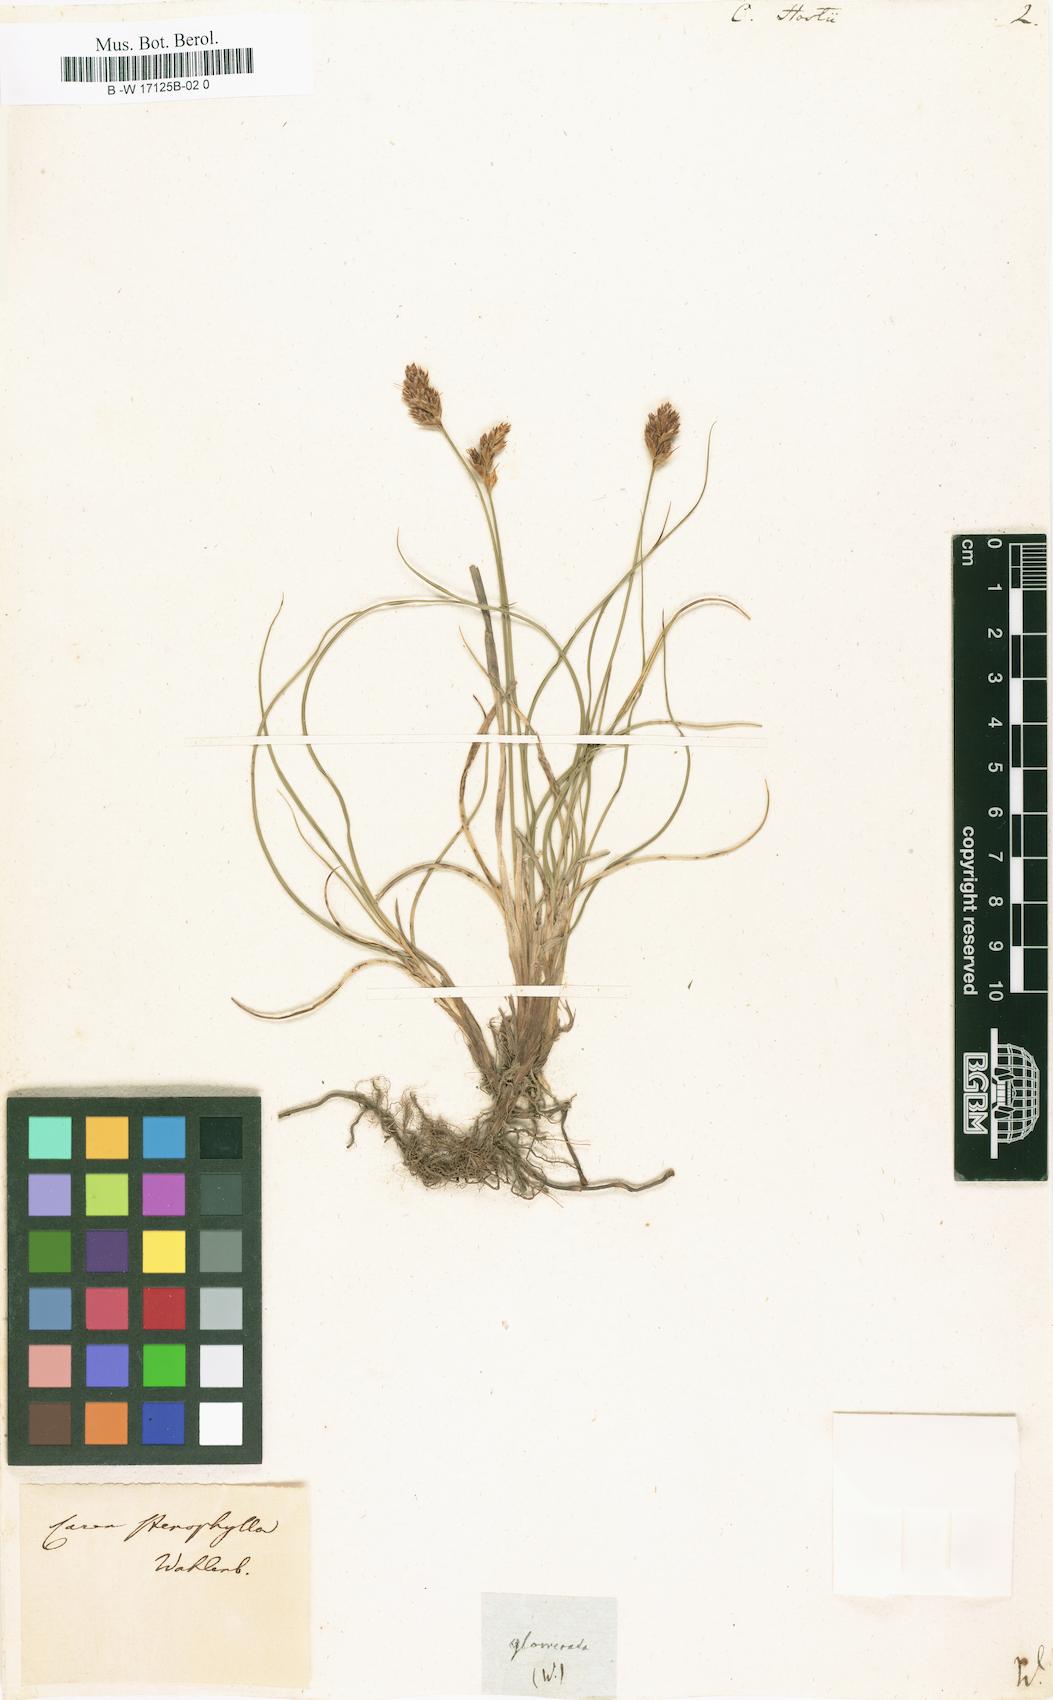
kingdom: Plantae
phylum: Tracheophyta
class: Liliopsida
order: Poales
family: Cyperaceae
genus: Carex
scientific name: Carex
